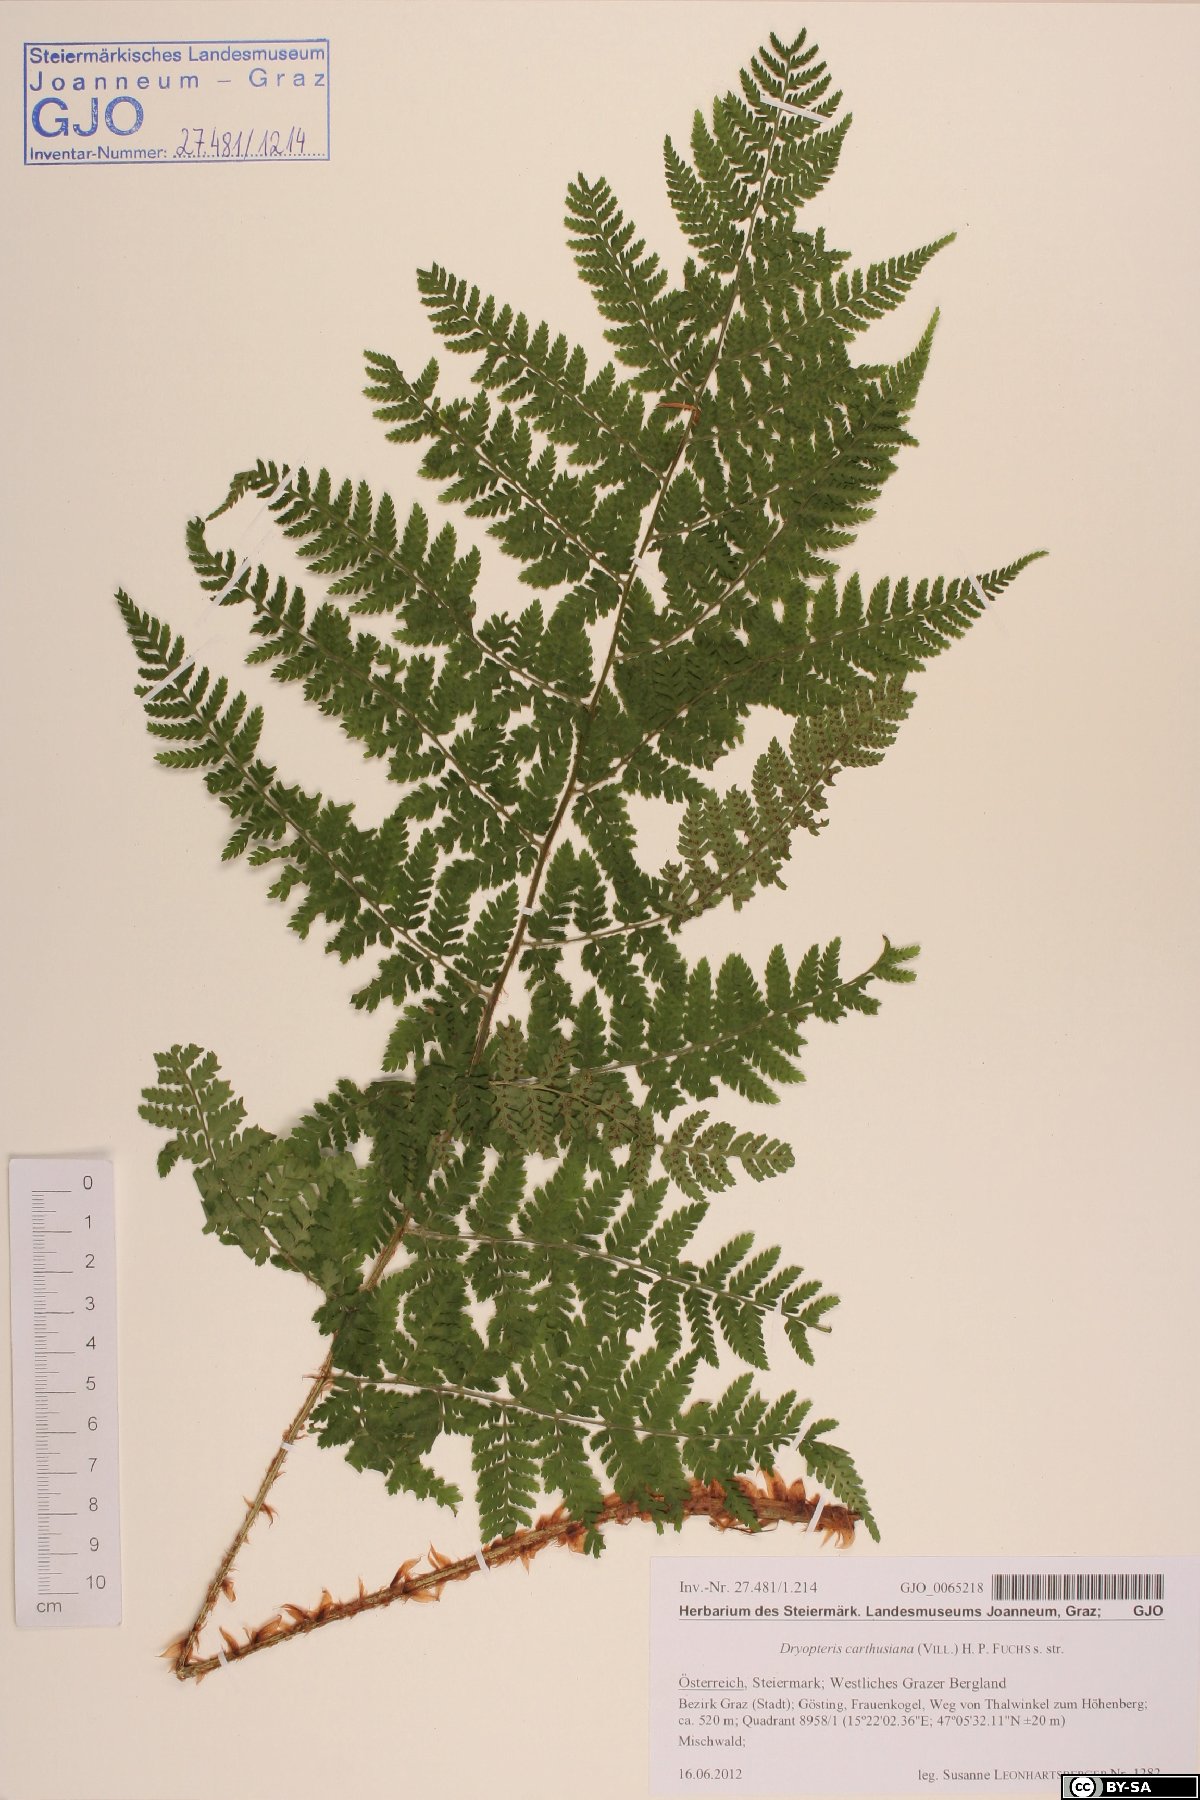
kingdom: Plantae
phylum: Tracheophyta
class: Polypodiopsida
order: Polypodiales
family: Dryopteridaceae
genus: Dryopteris
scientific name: Dryopteris carthusiana
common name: Narrow buckler-fern
